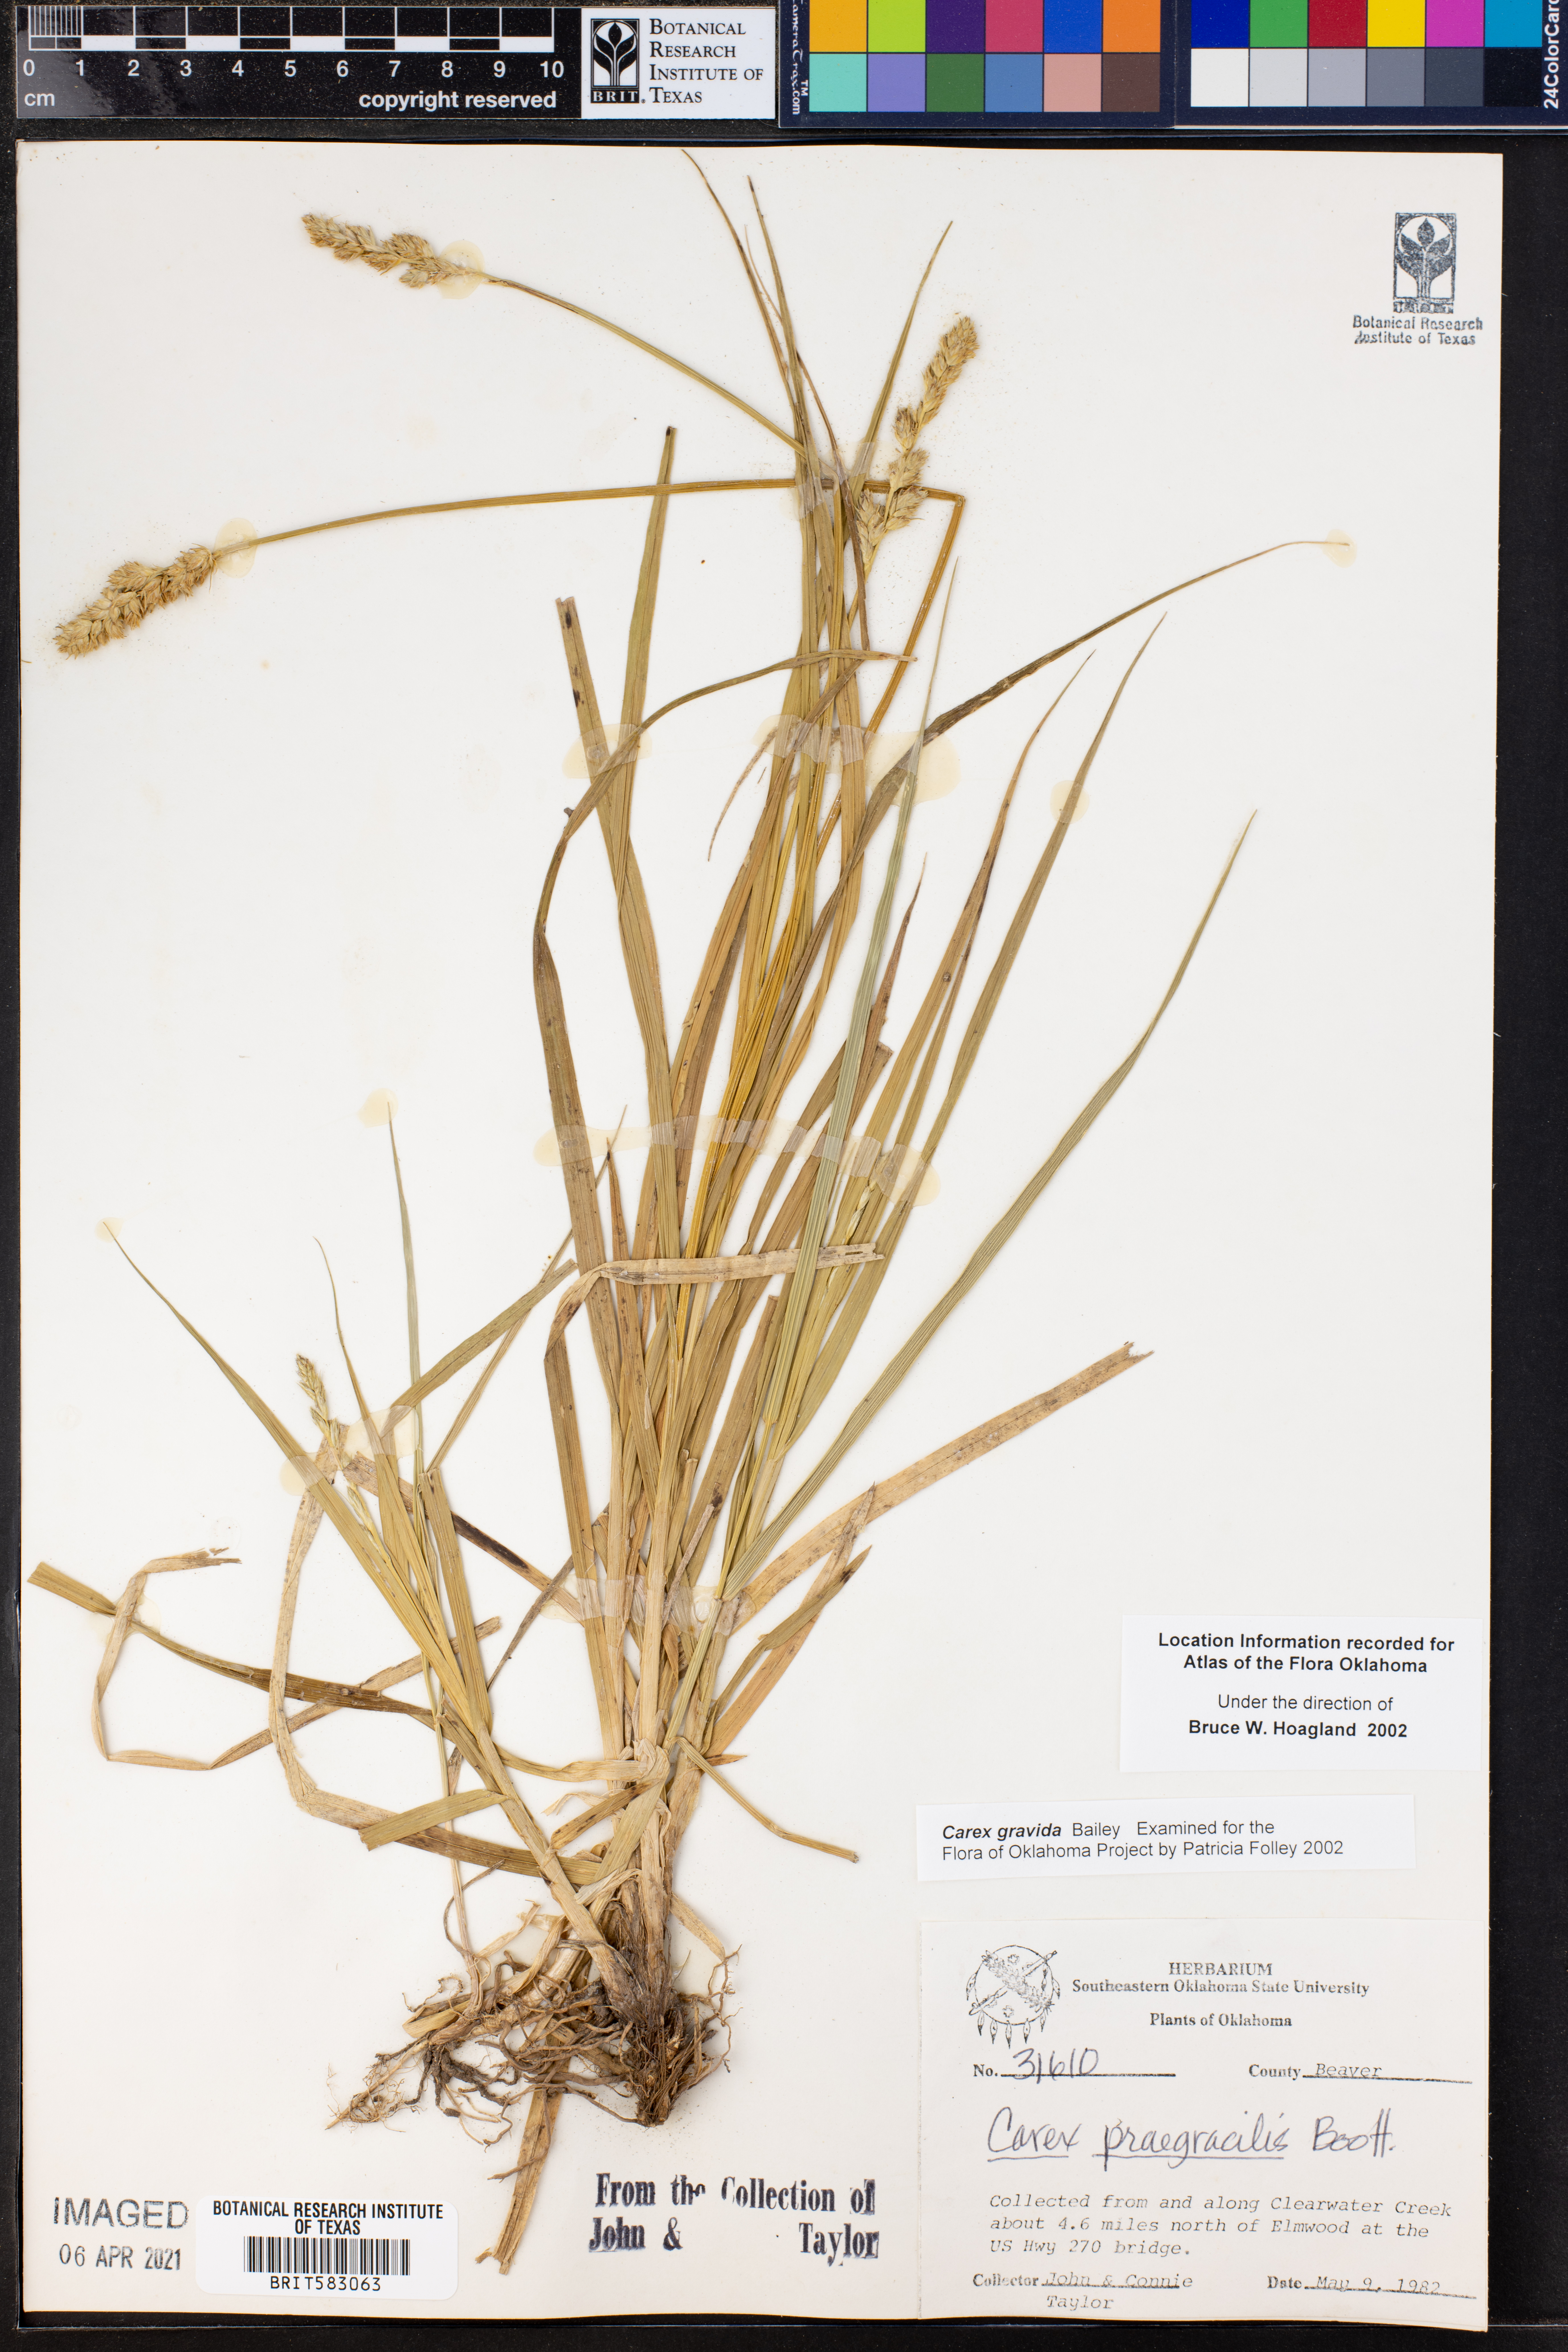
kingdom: Plantae
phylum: Tracheophyta
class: Liliopsida
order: Poales
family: Cyperaceae
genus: Carex
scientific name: Carex gravida
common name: Heavy sedge
